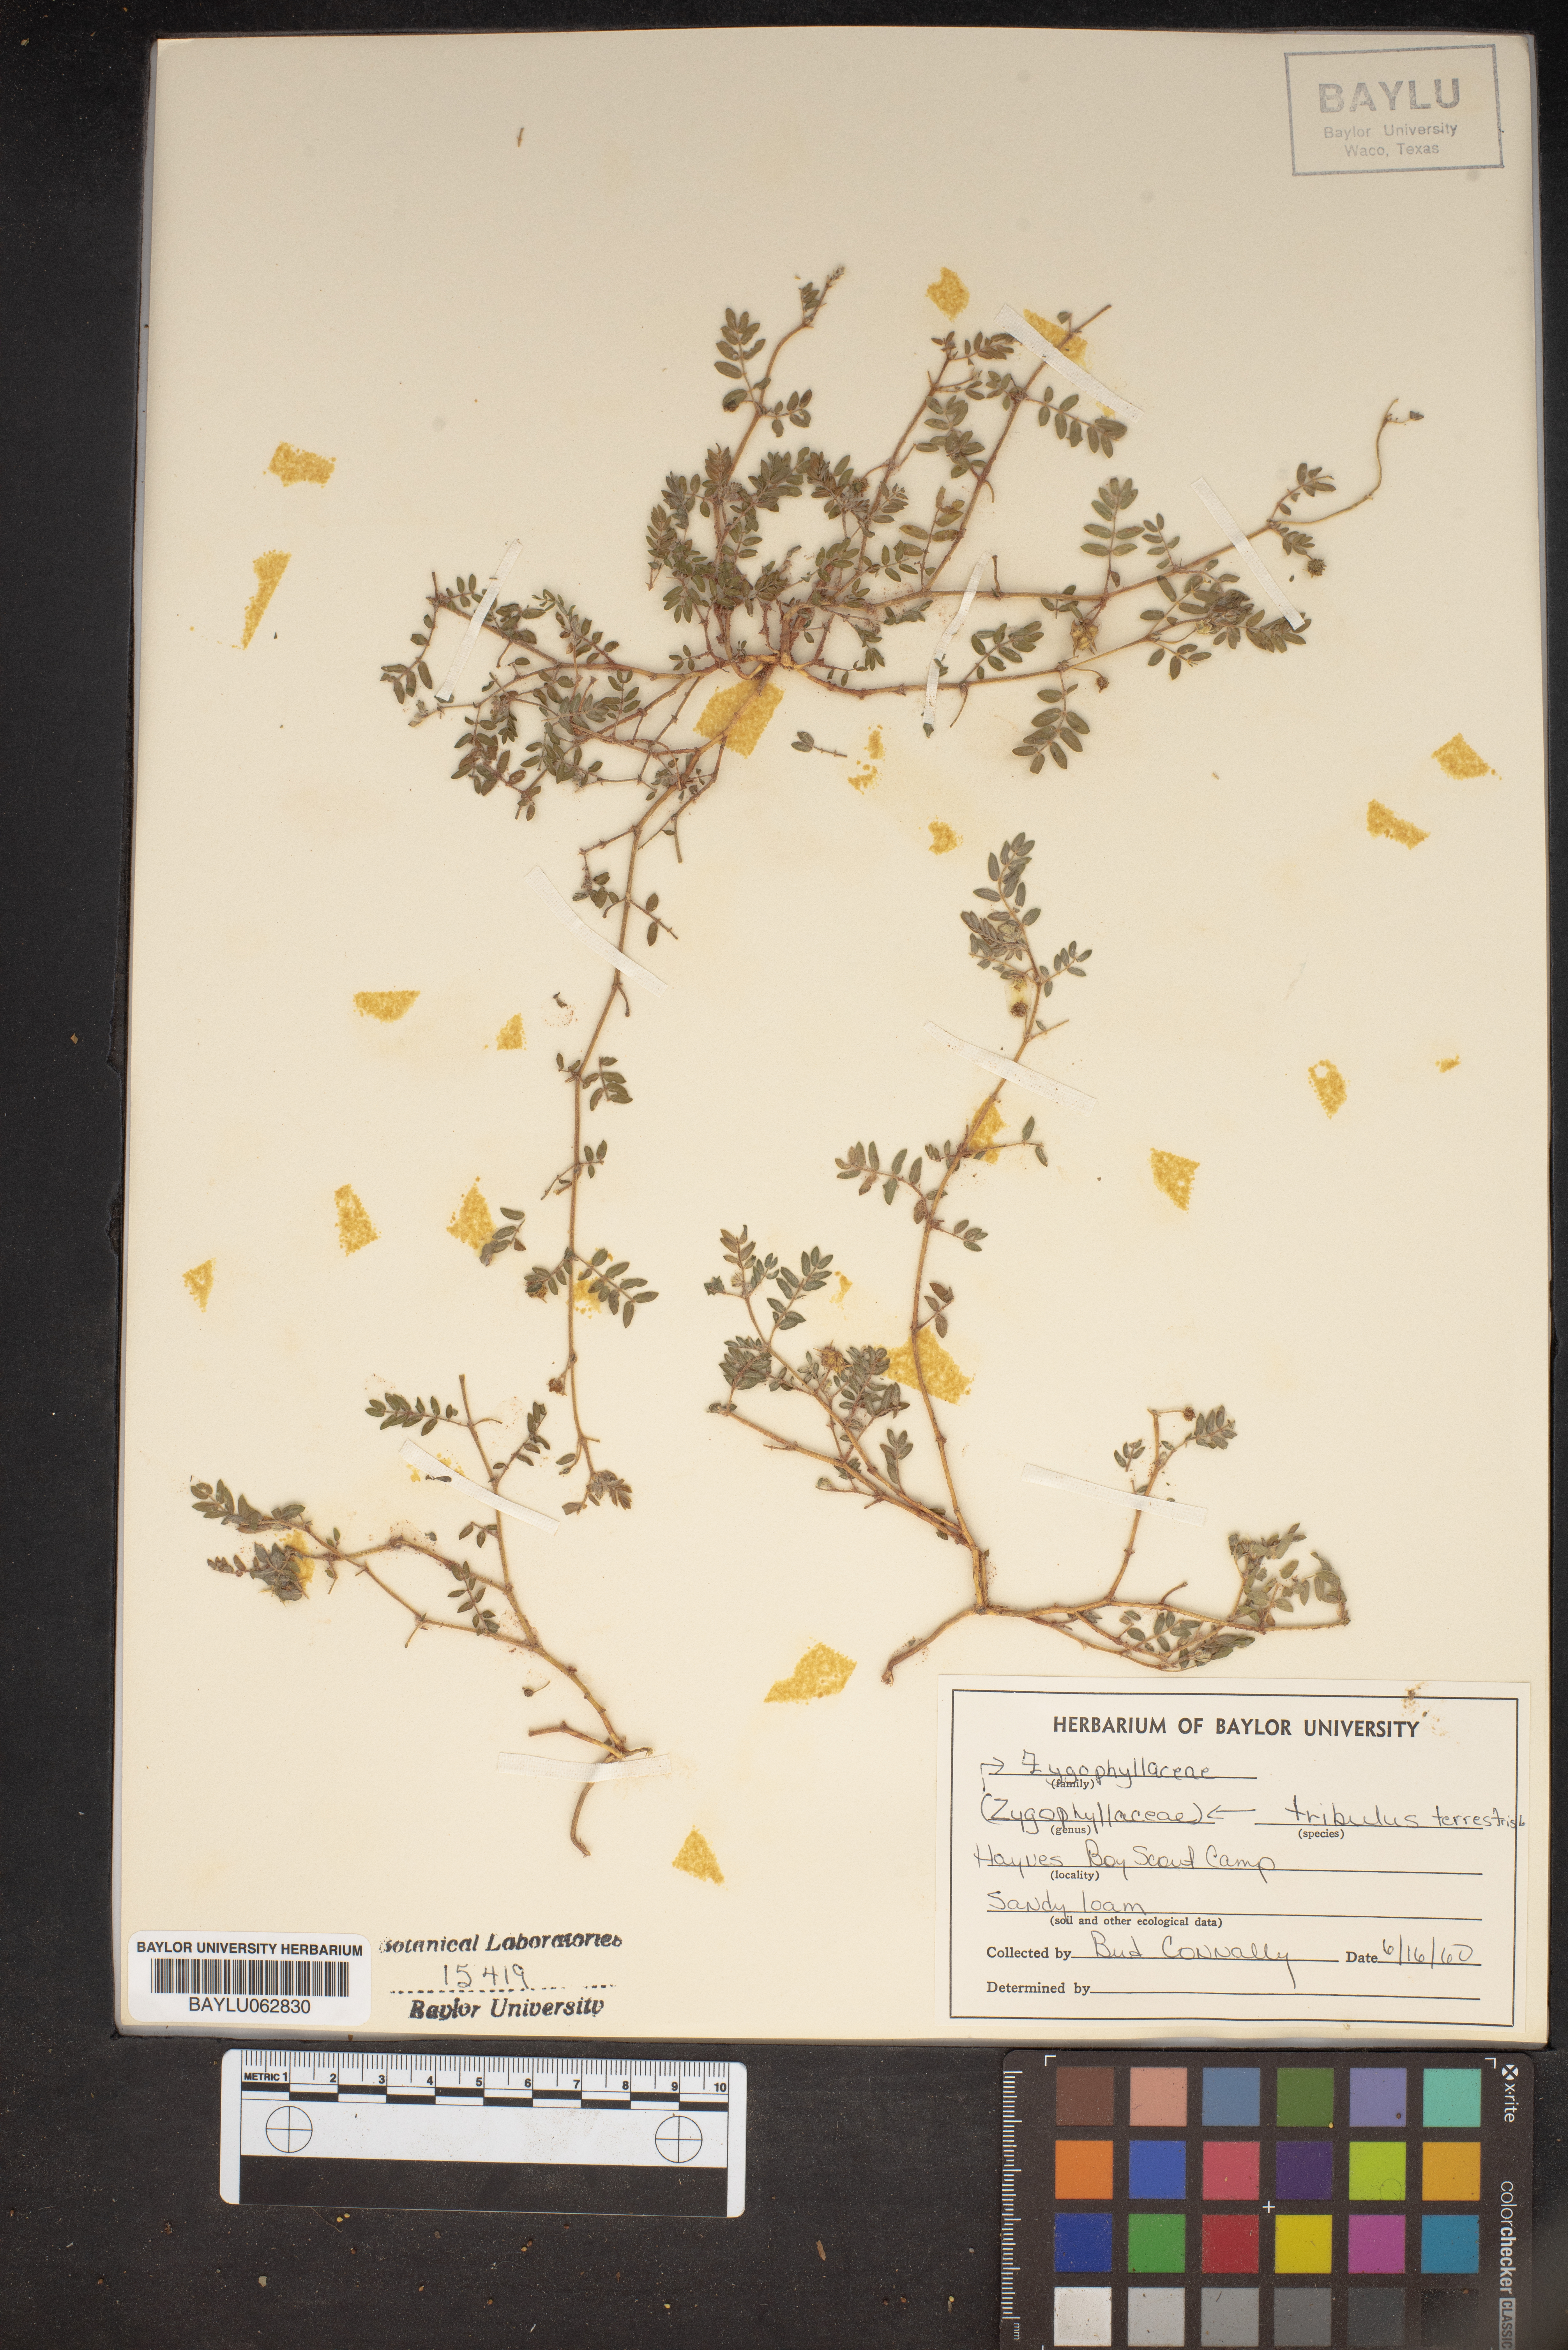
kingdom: Plantae
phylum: Tracheophyta
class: Magnoliopsida
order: Zygophyllales
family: Zygophyllaceae
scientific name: Zygophyllaceae
